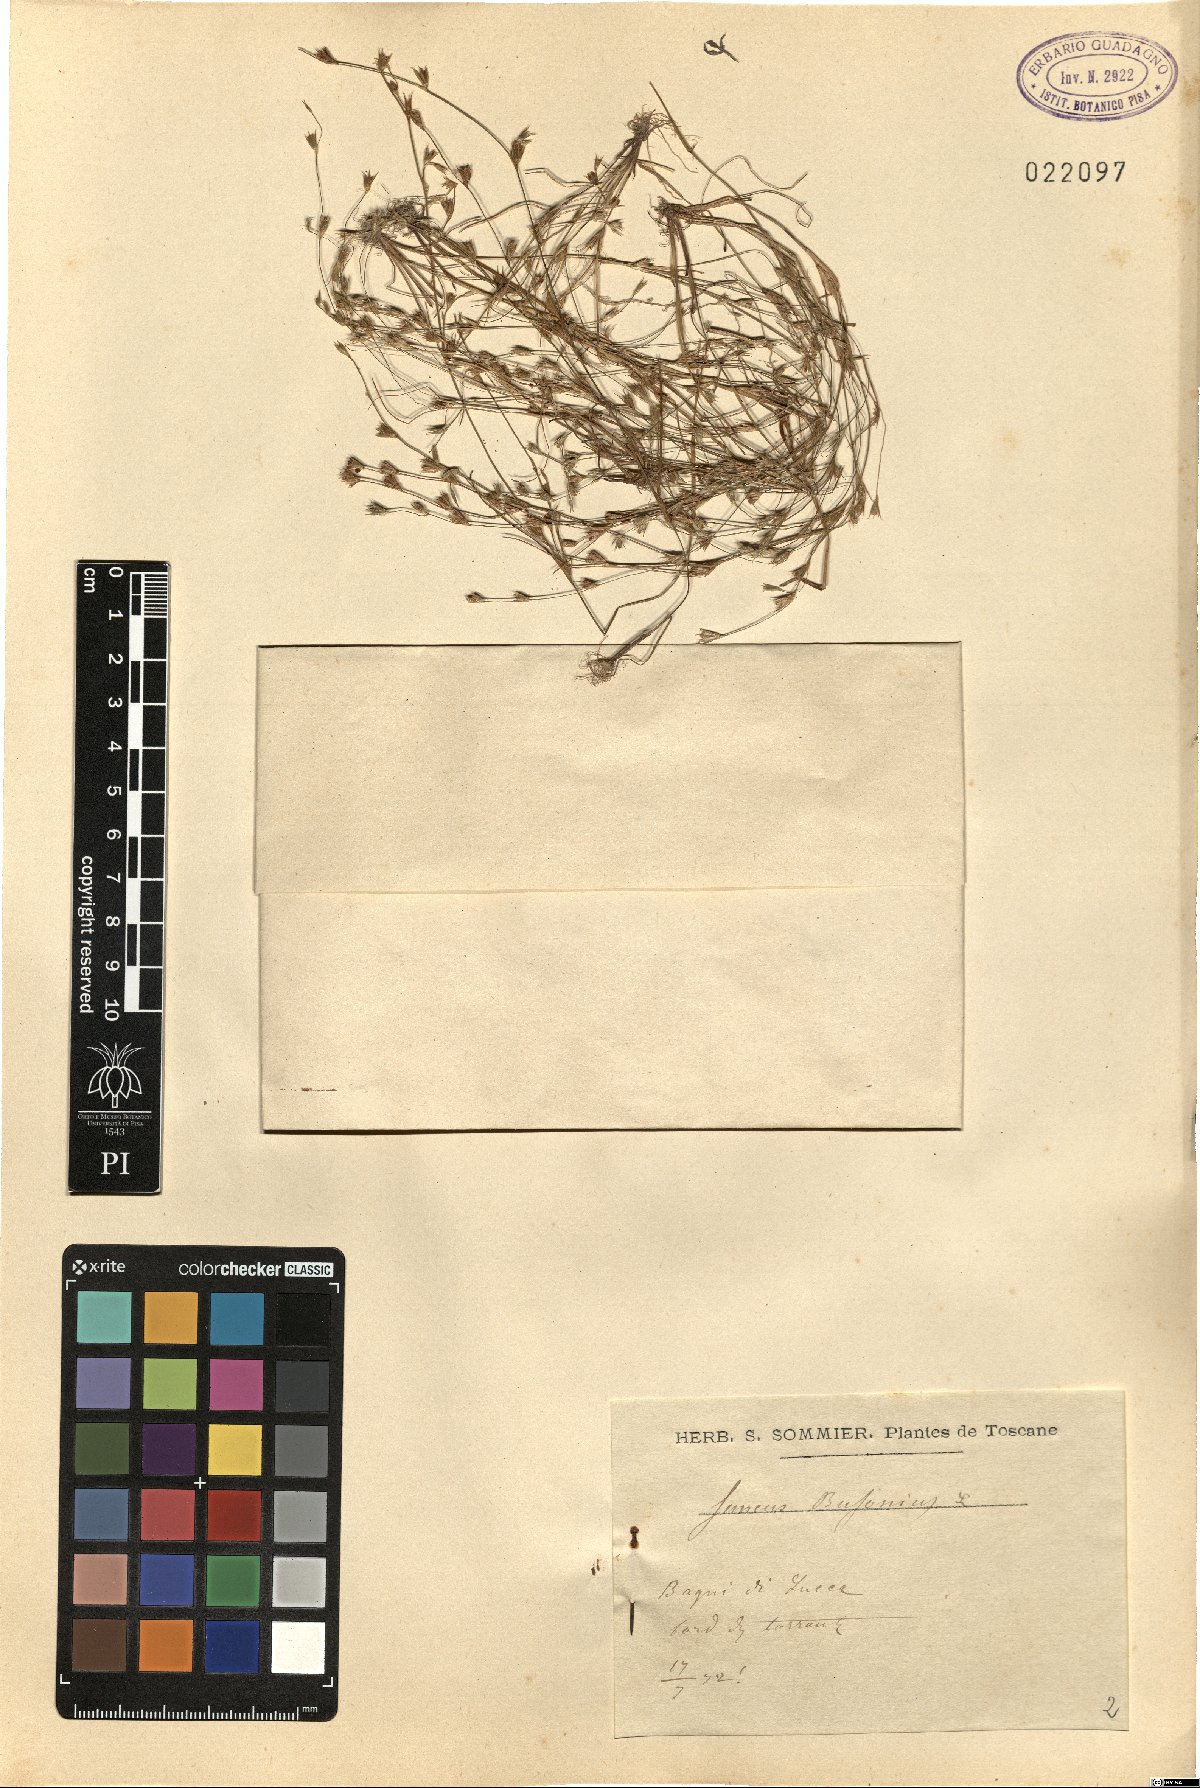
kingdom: Plantae
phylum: Tracheophyta
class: Liliopsida
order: Poales
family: Juncaceae
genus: Juncus
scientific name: Juncus bufonius
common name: Toad rush
